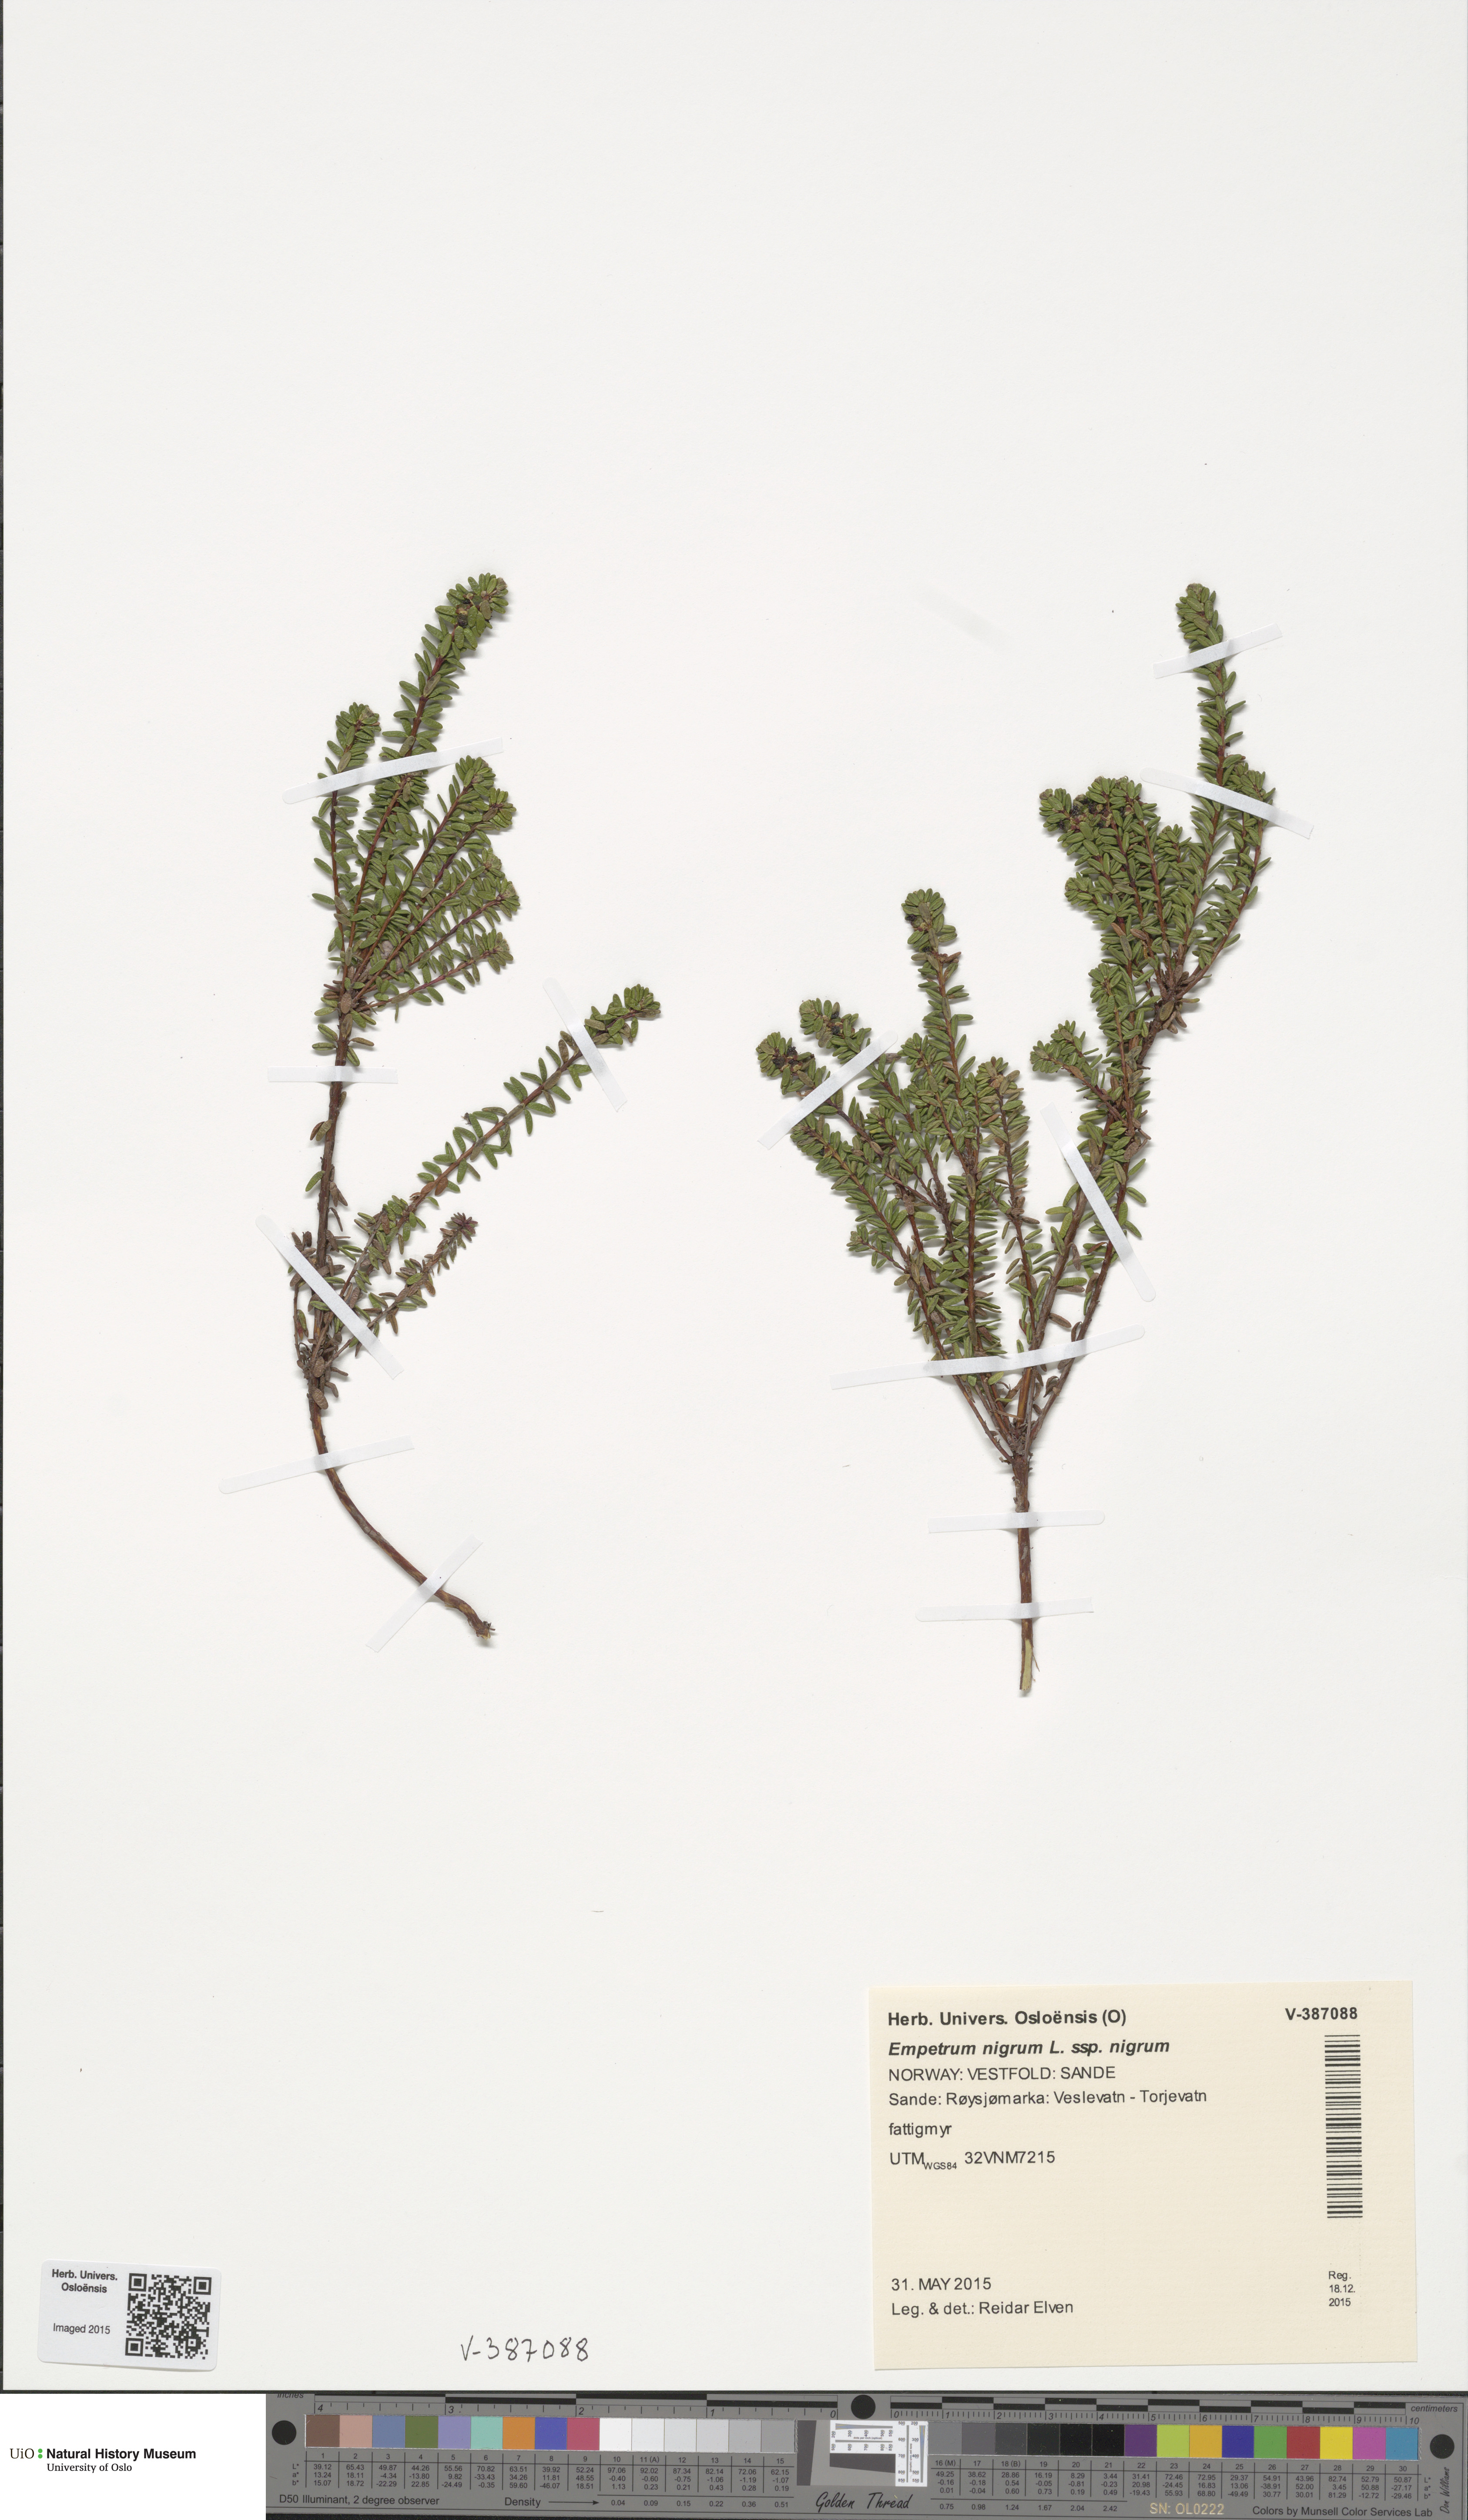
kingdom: Plantae
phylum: Tracheophyta
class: Magnoliopsida
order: Ericales
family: Ericaceae
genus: Empetrum
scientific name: Empetrum nigrum
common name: Black crowberry
